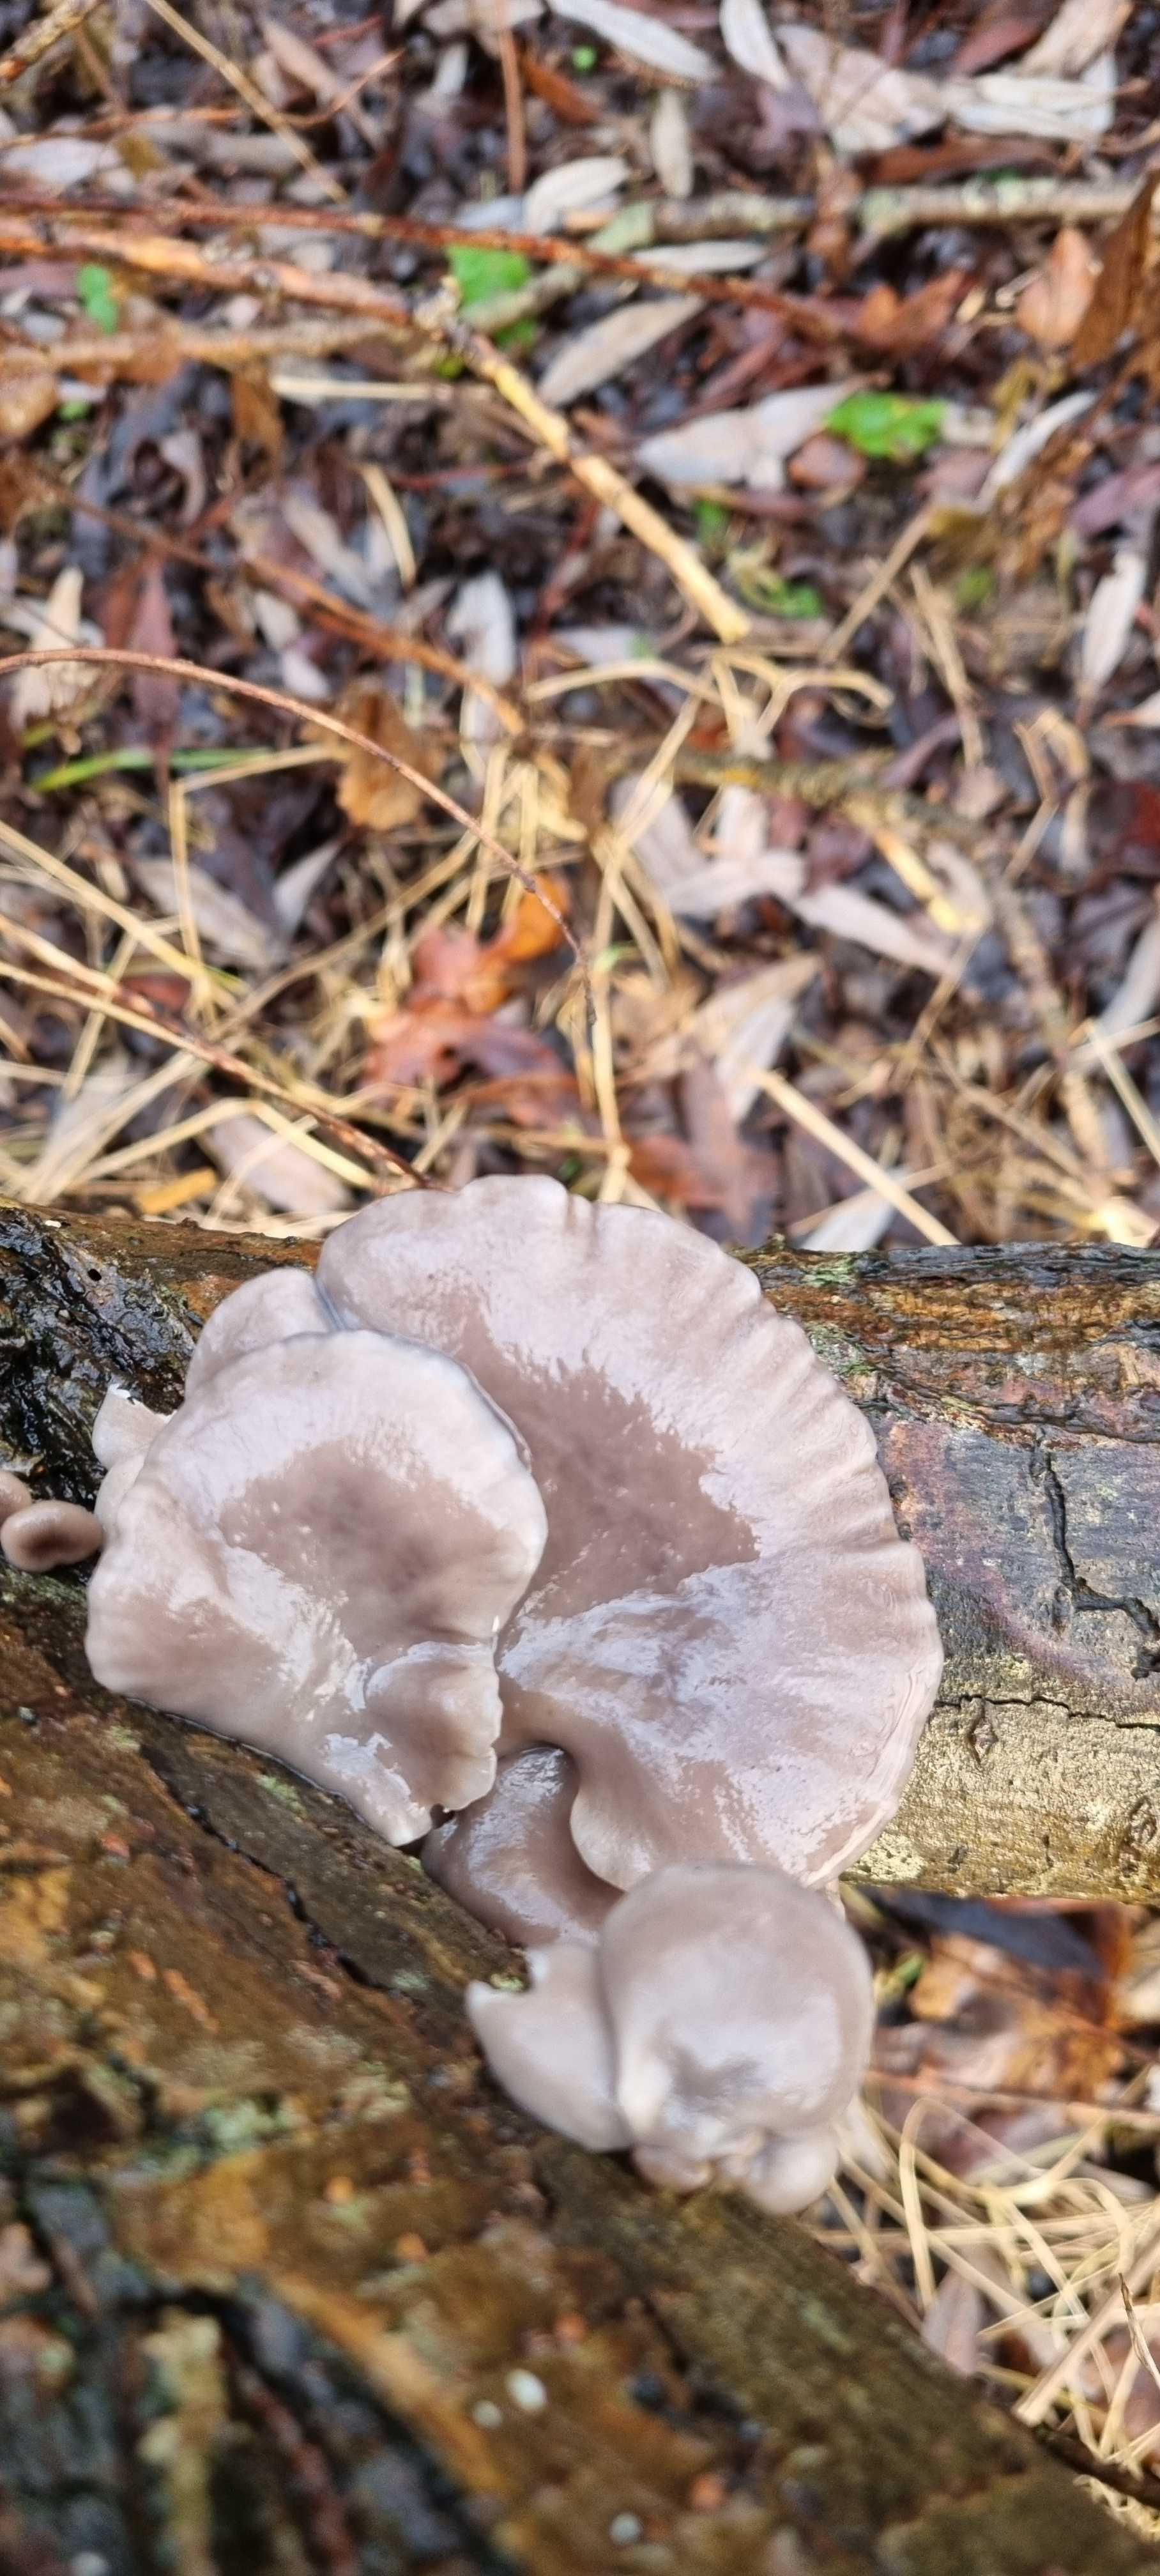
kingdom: Fungi
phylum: Basidiomycota
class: Agaricomycetes
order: Agaricales
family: Pleurotaceae
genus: Pleurotus
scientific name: Pleurotus ostreatus
